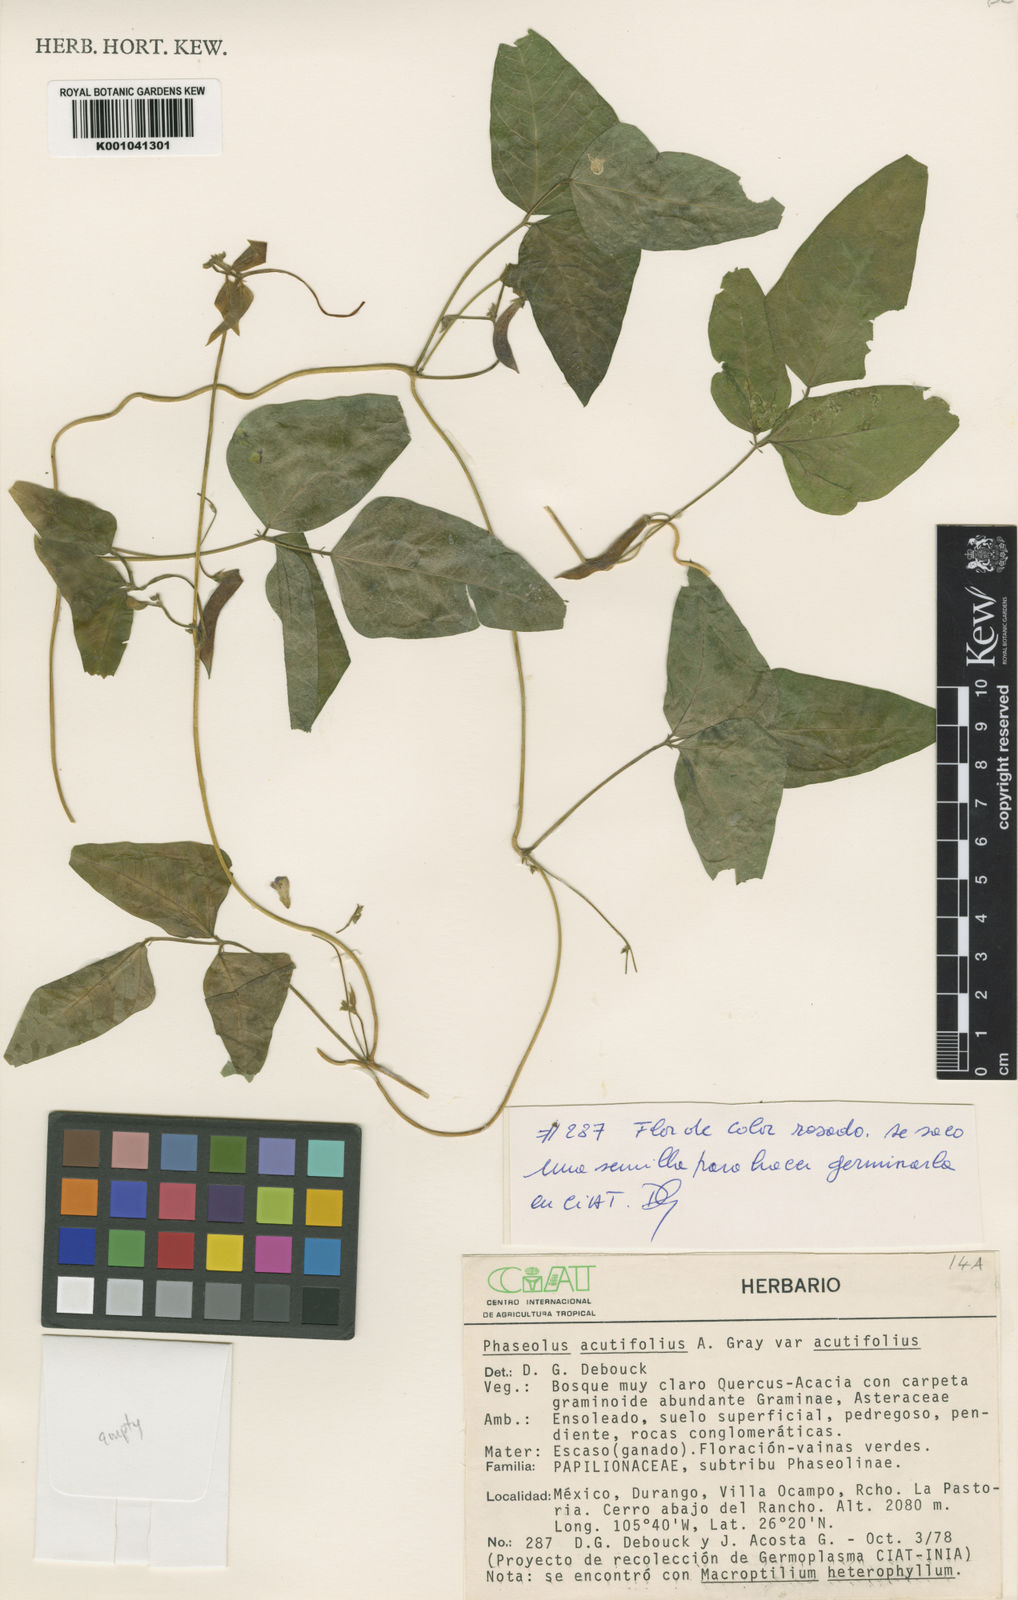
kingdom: Plantae
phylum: Tracheophyta
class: Magnoliopsida
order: Fabales
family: Fabaceae
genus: Phaseolus
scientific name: Phaseolus acutifolius
